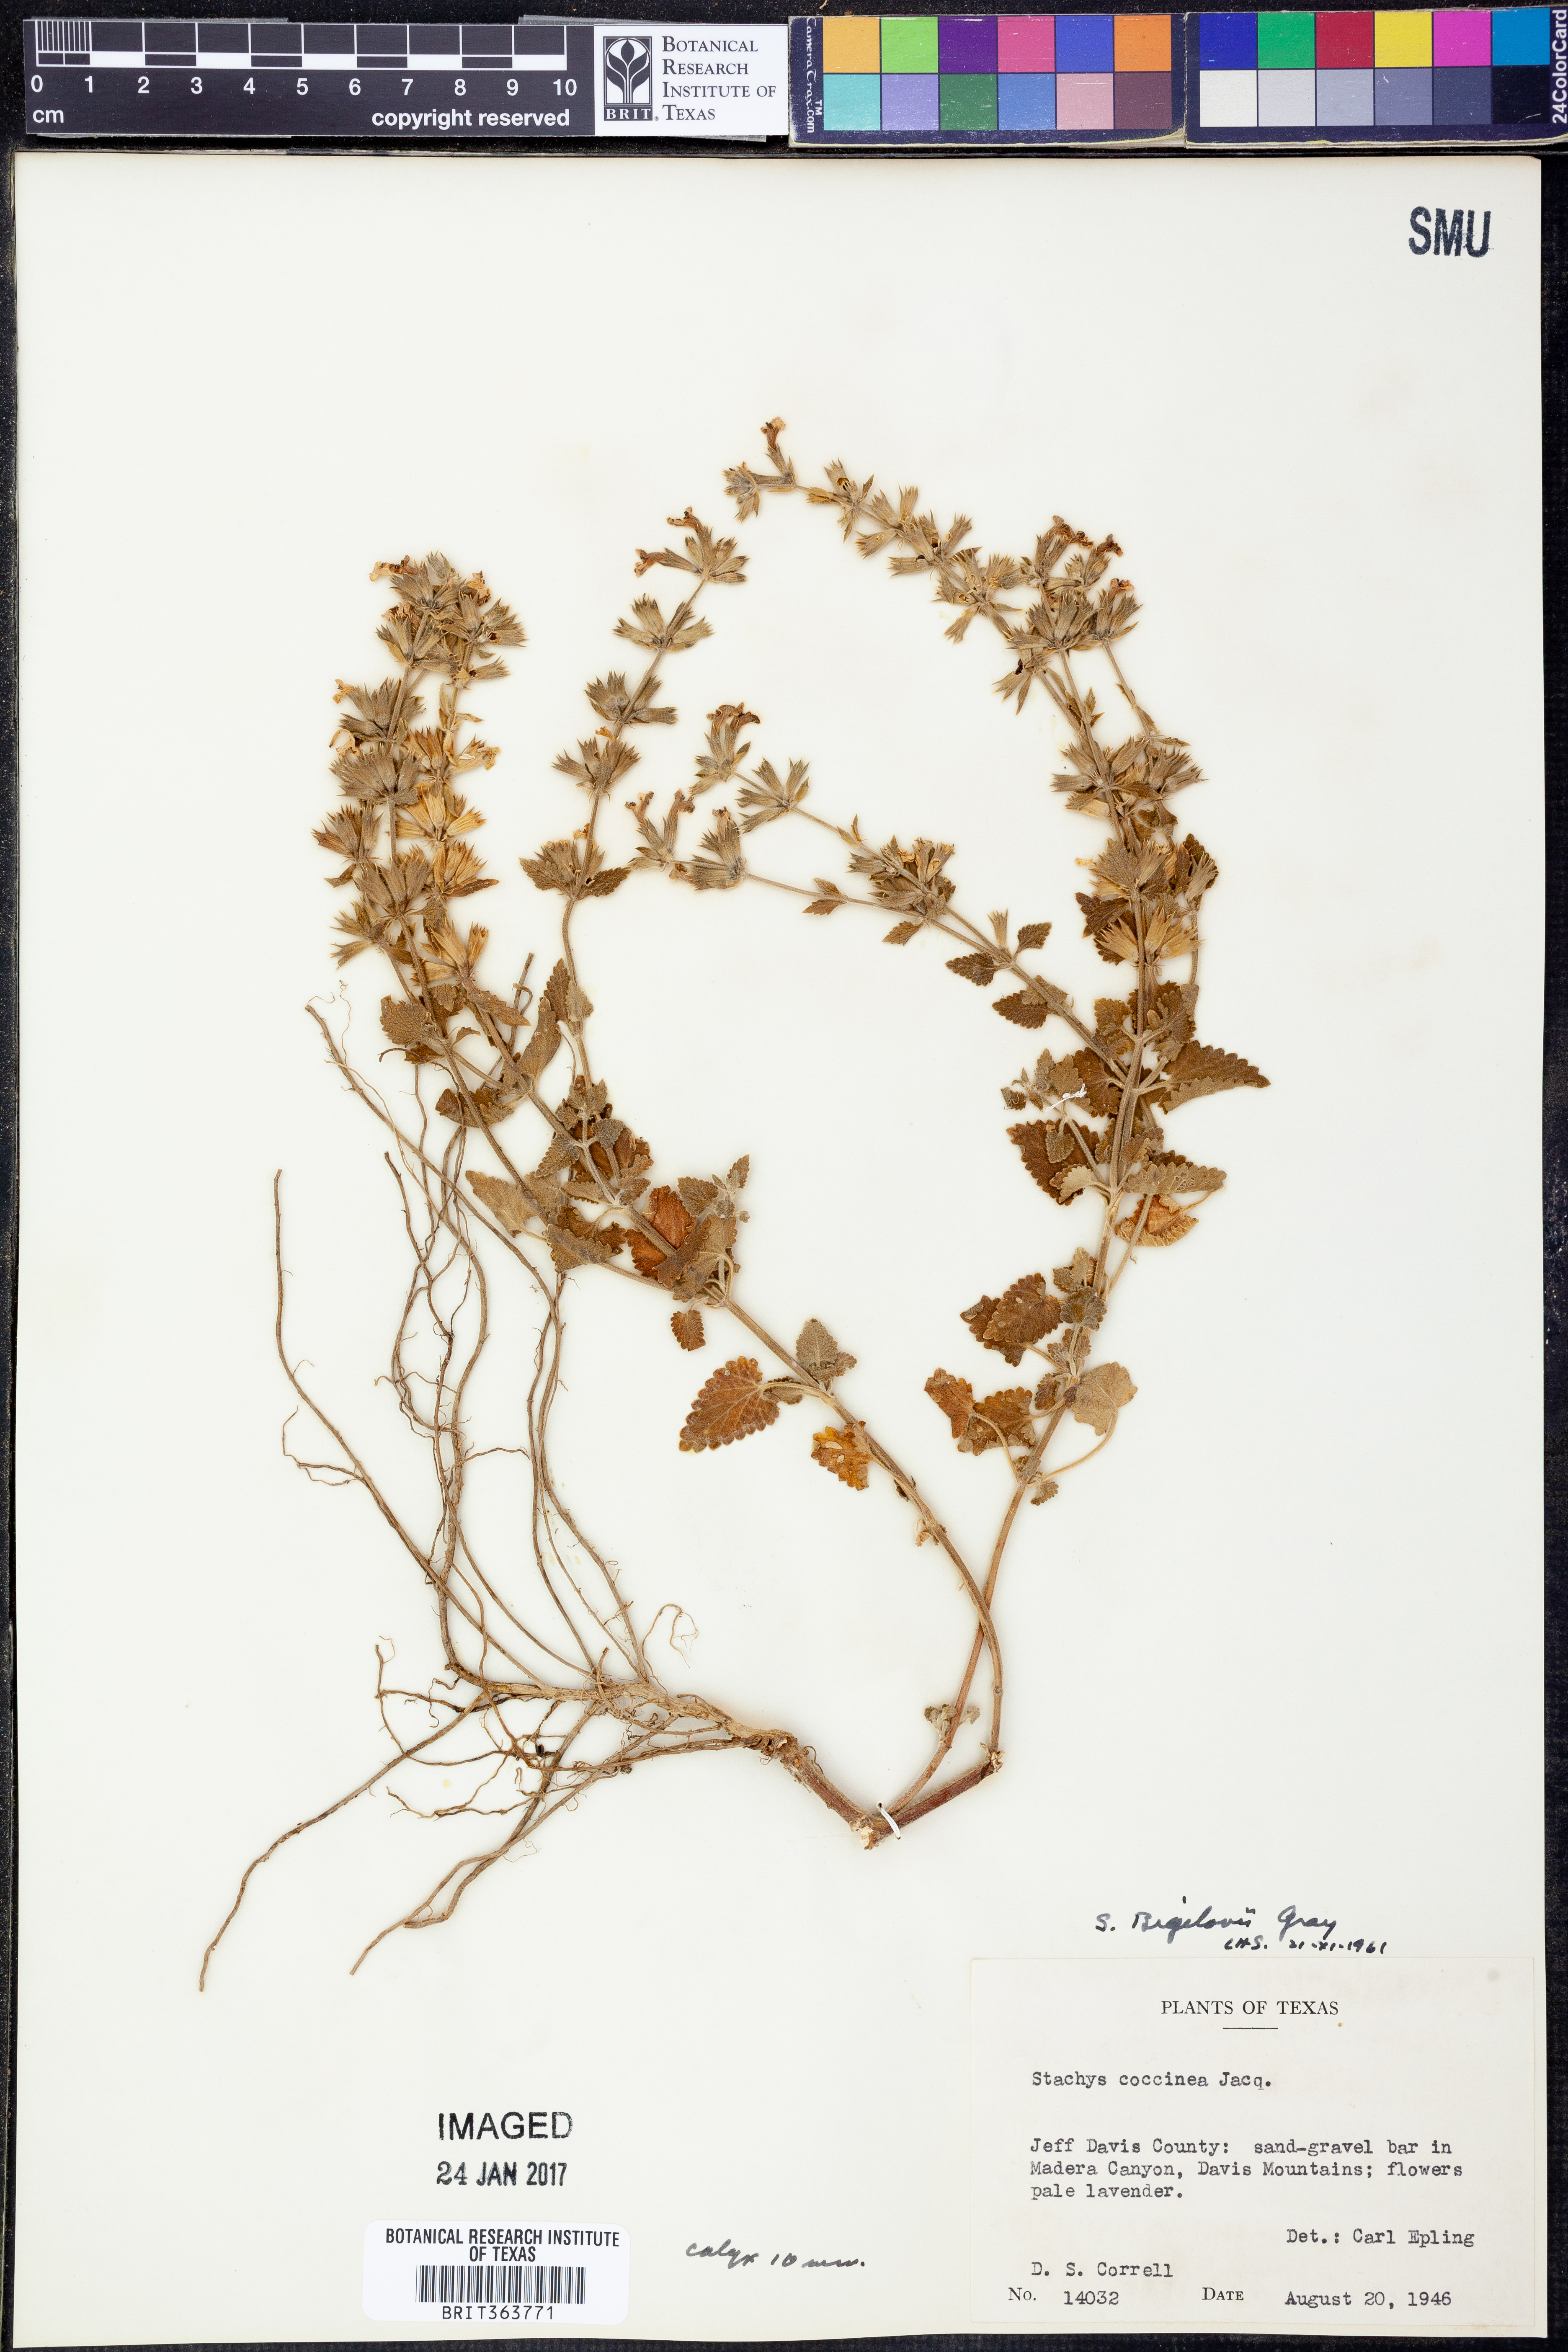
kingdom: Plantae
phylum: Tracheophyta
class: Magnoliopsida
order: Lamiales
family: Lamiaceae
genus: Stachys
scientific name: Stachys bigelovii
